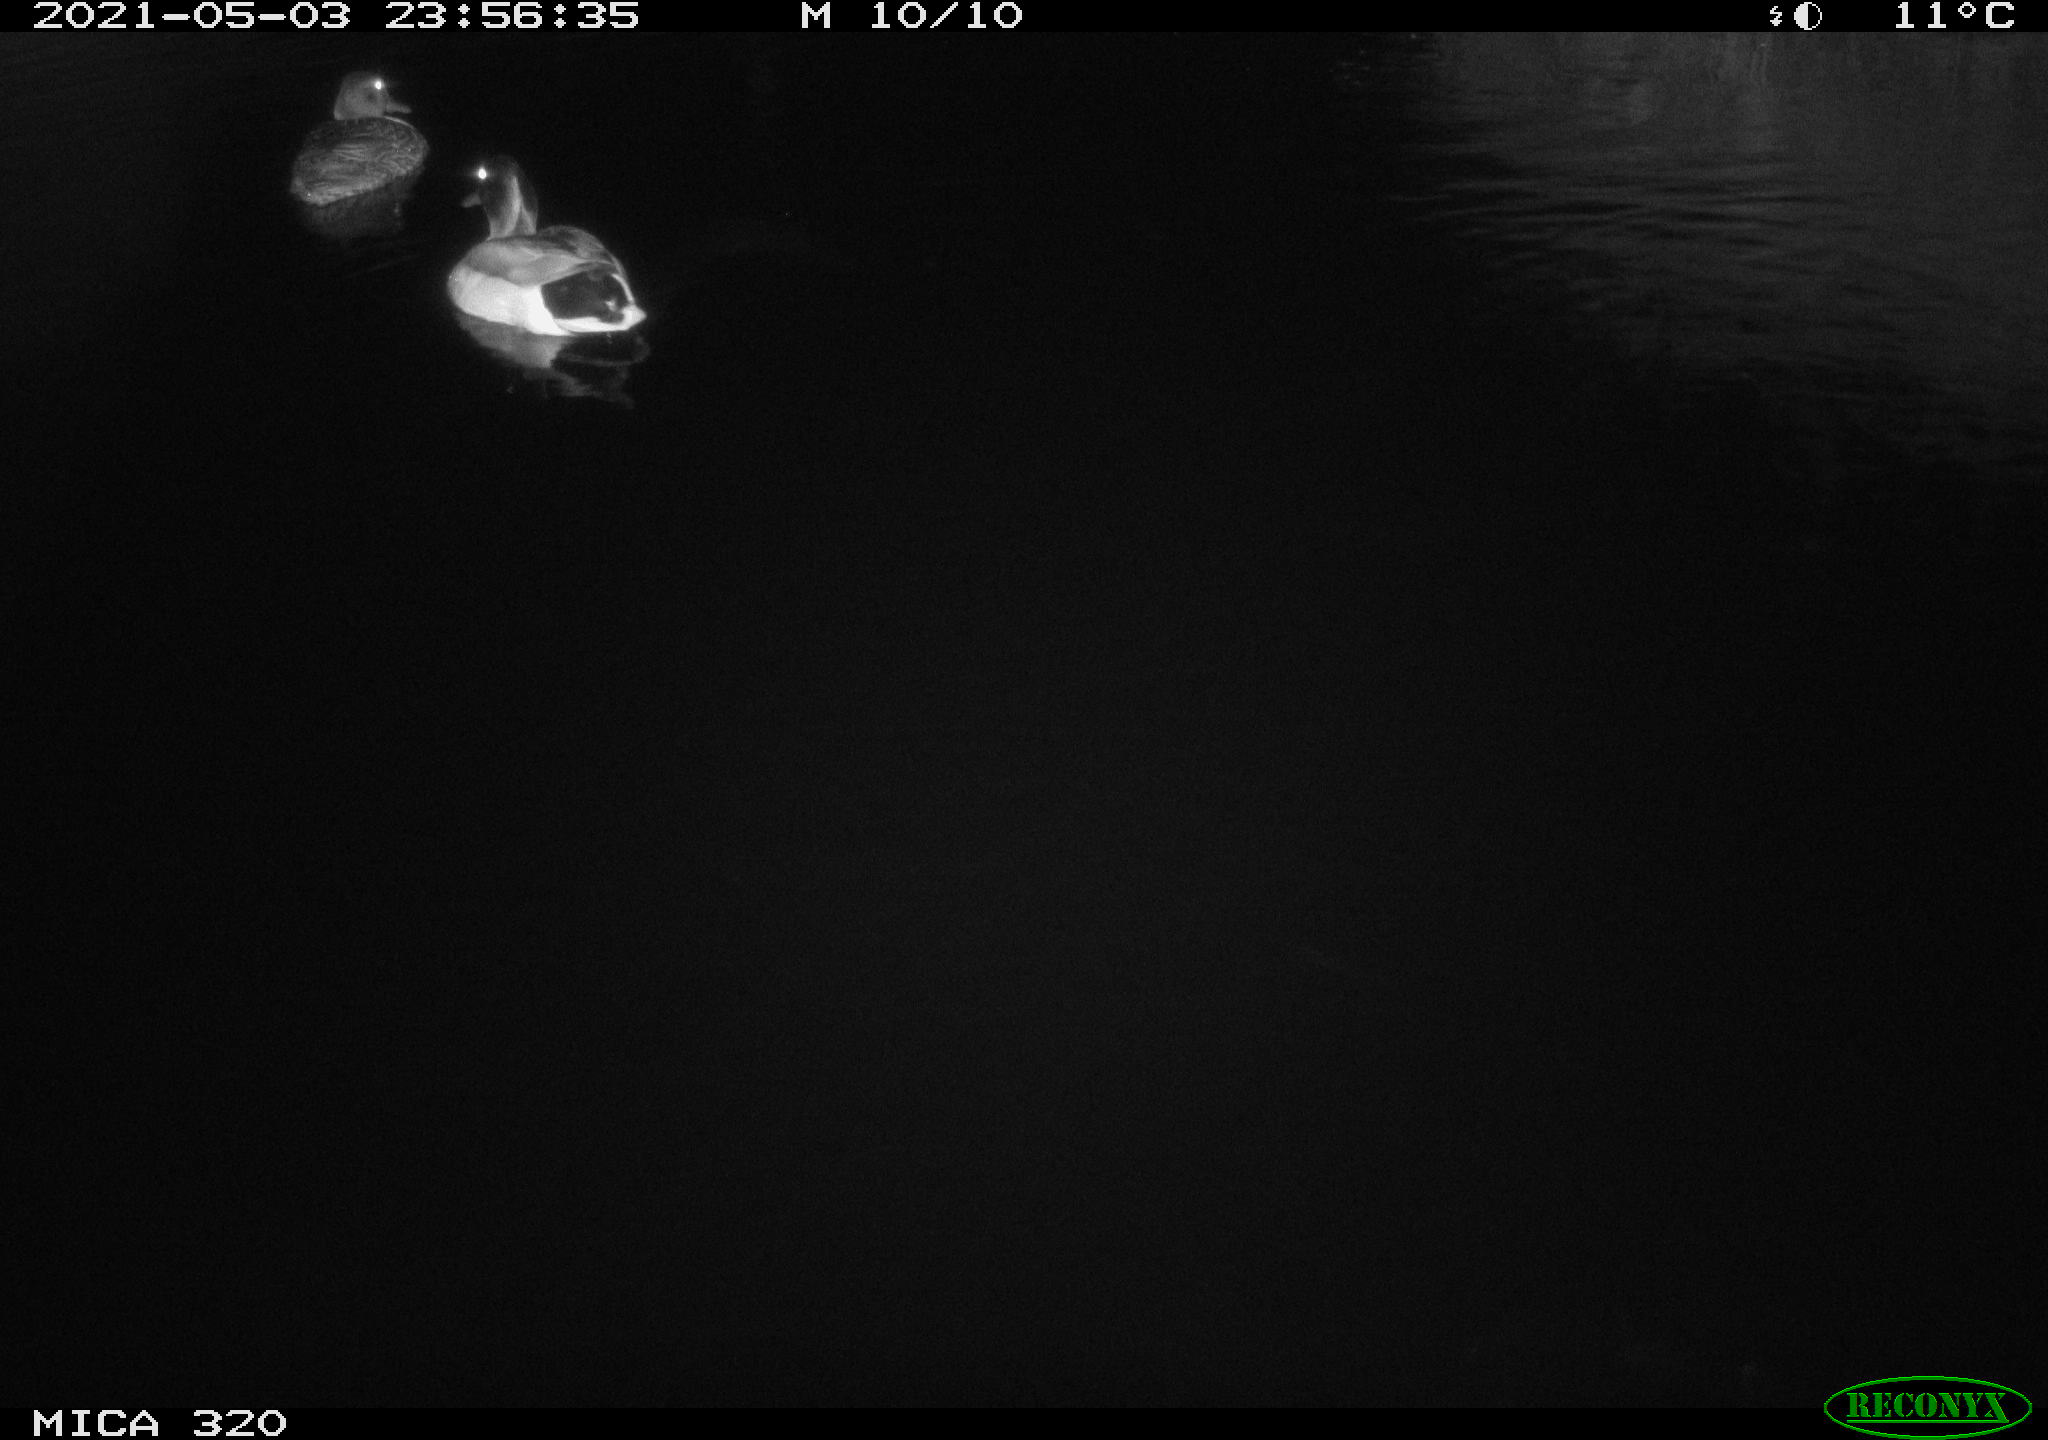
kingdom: Animalia
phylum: Chordata
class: Aves
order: Anseriformes
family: Anatidae
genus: Anas
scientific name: Anas platyrhynchos
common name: Mallard
